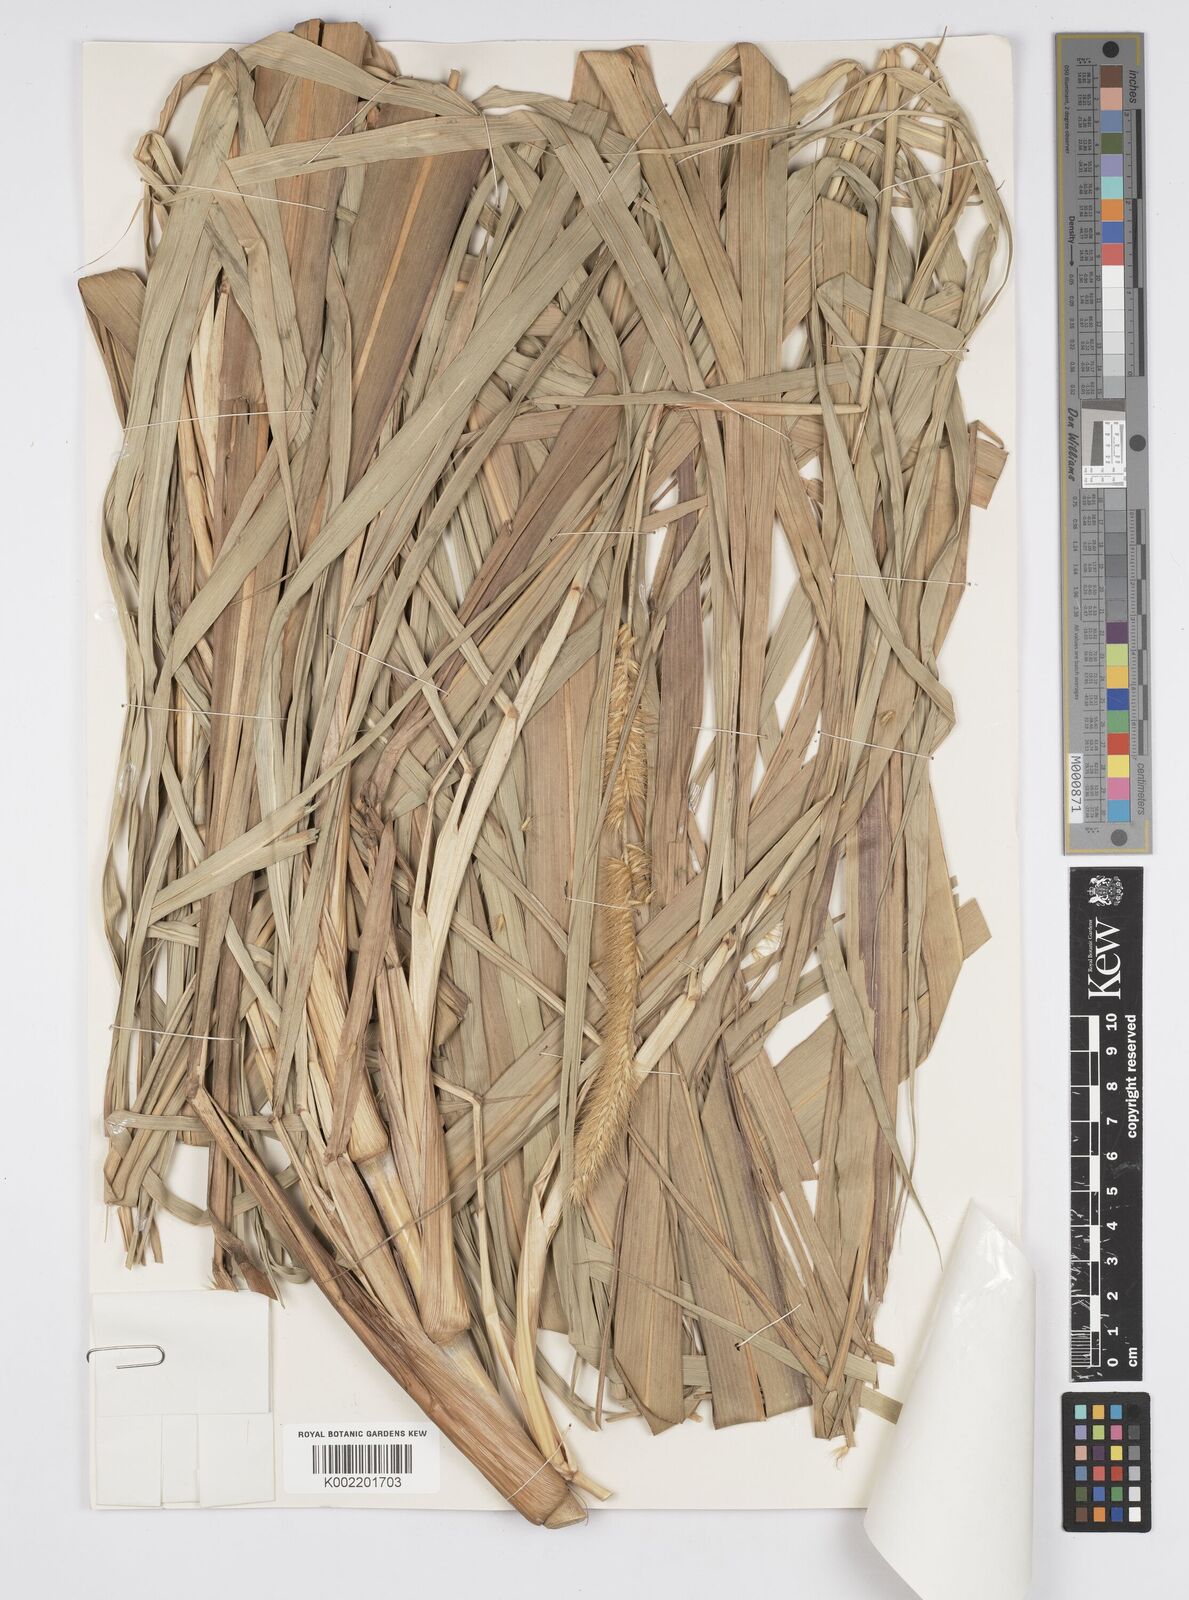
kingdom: Plantae
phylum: Tracheophyta
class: Liliopsida
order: Poales
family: Poaceae
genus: Cenchrus
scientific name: Cenchrus purpureus
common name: Elephant grass
